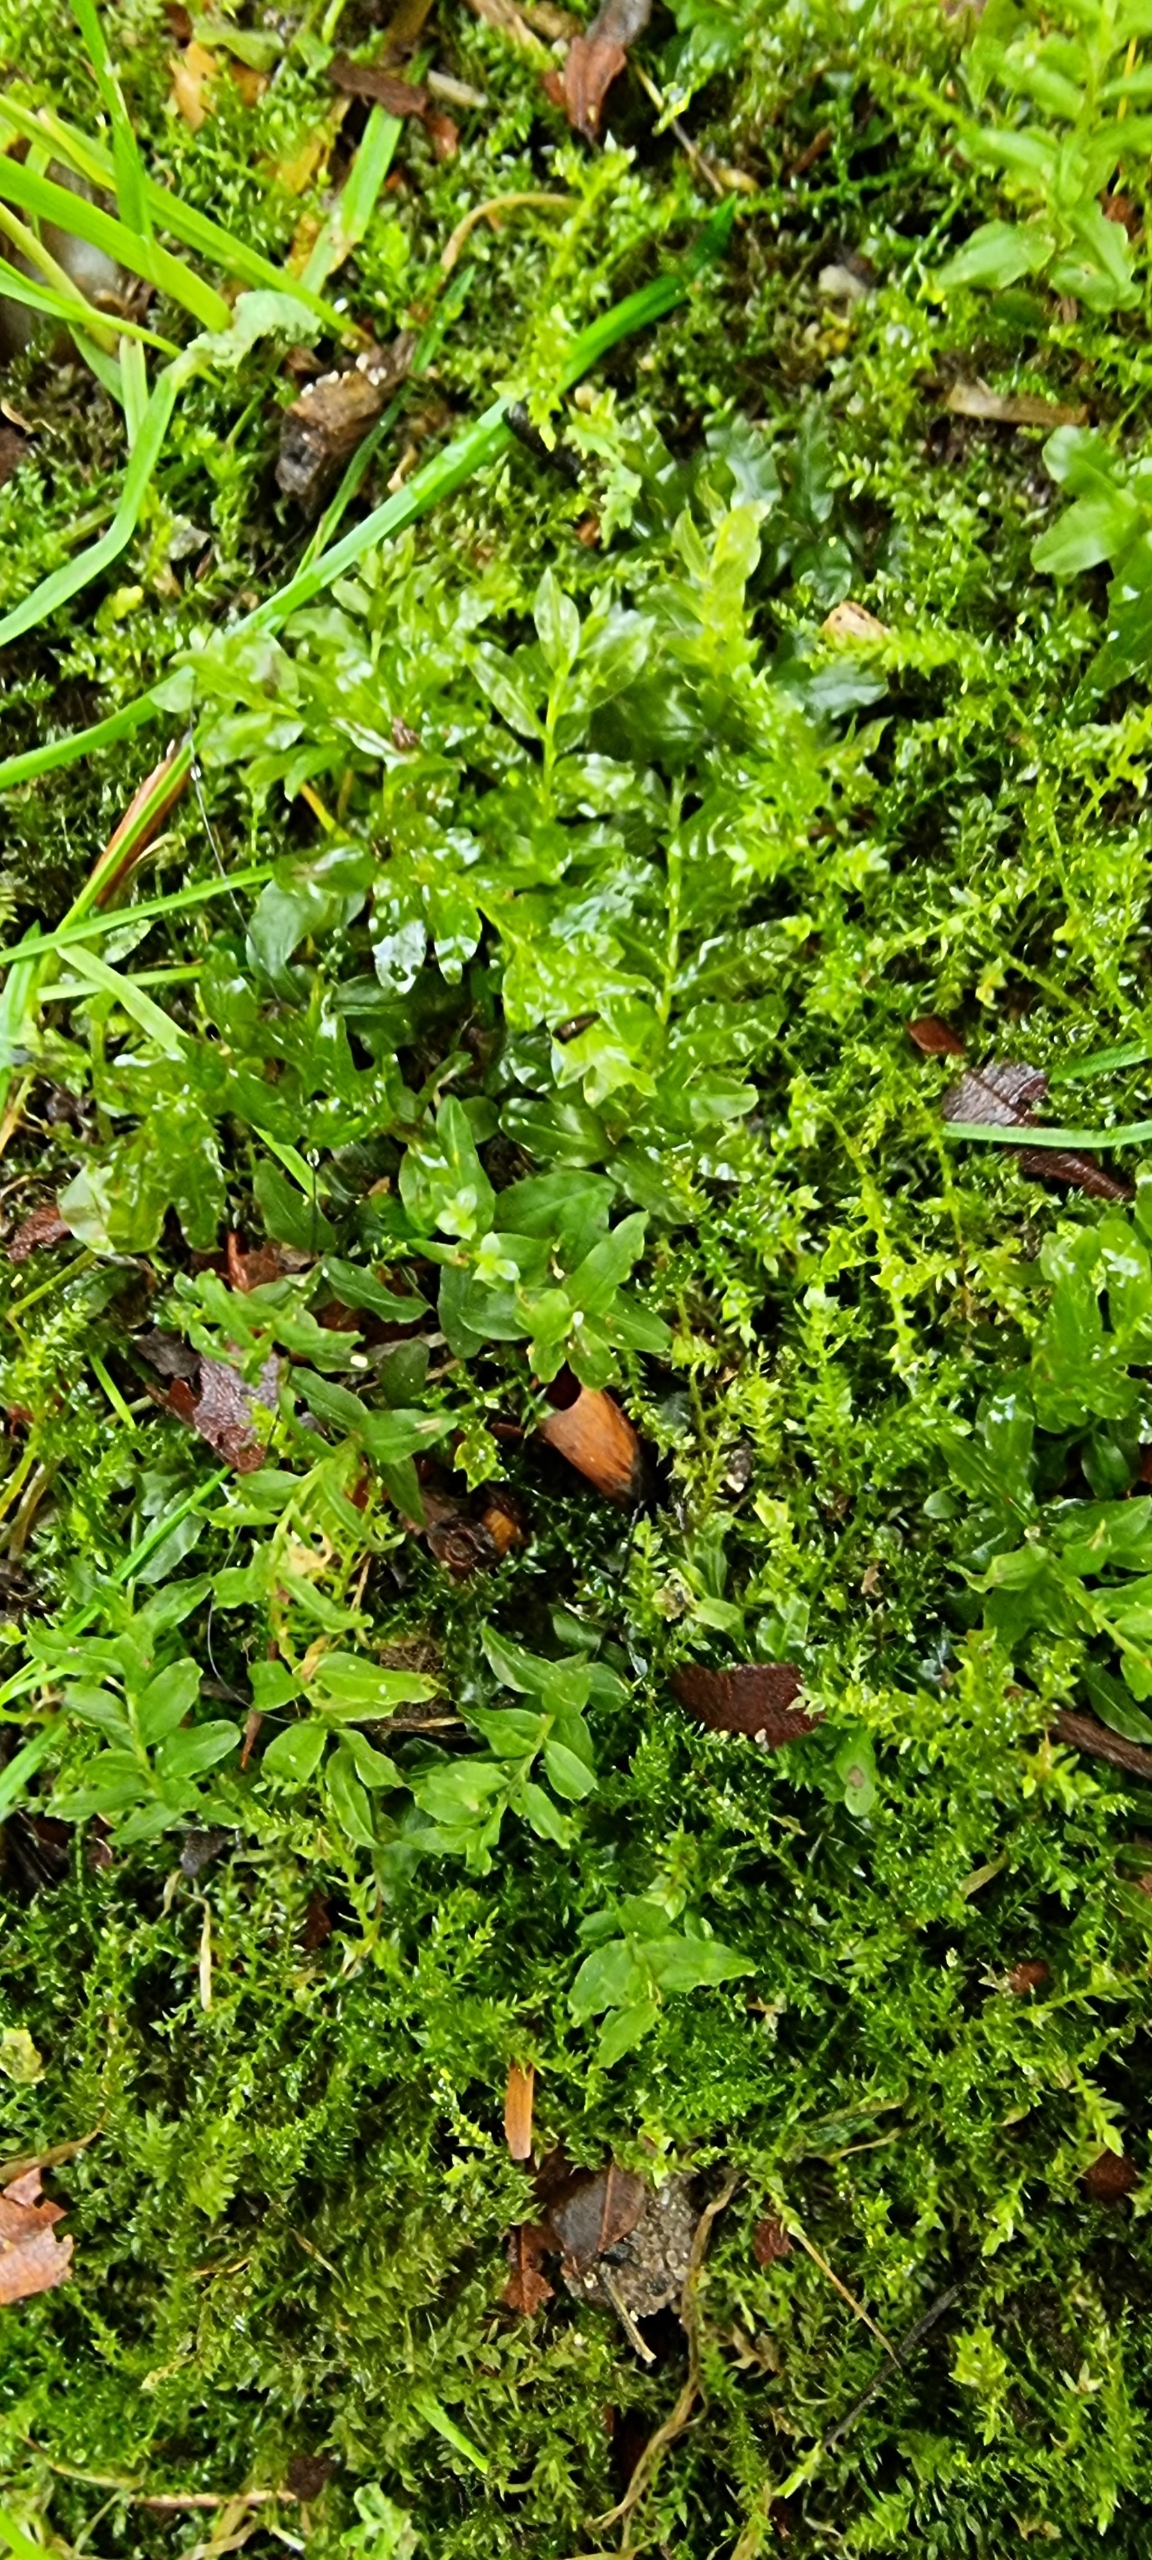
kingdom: Plantae
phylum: Bryophyta
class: Bryopsida
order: Bryales
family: Mniaceae
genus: Plagiomnium
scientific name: Plagiomnium undulatum
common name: Bølget krybstjerne
